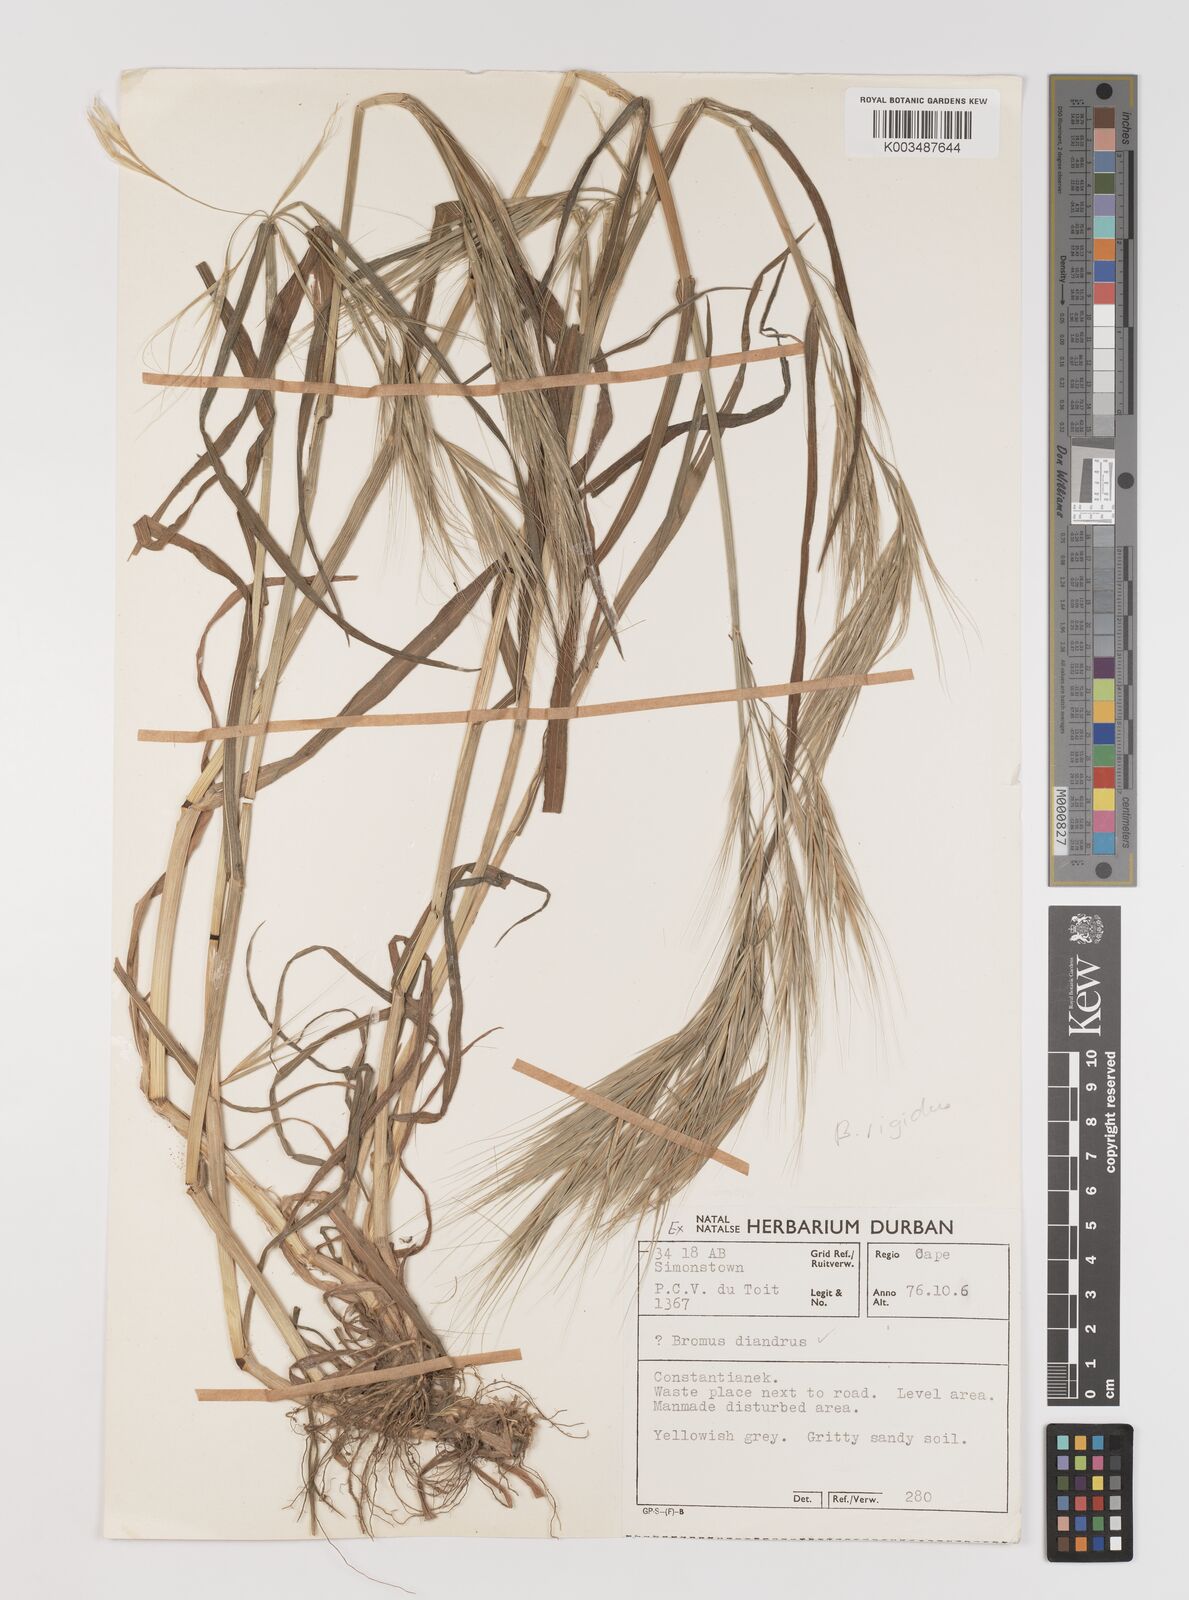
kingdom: Plantae
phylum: Tracheophyta
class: Liliopsida
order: Poales
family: Poaceae
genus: Bromus
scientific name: Bromus diandrus
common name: Ripgut brome
